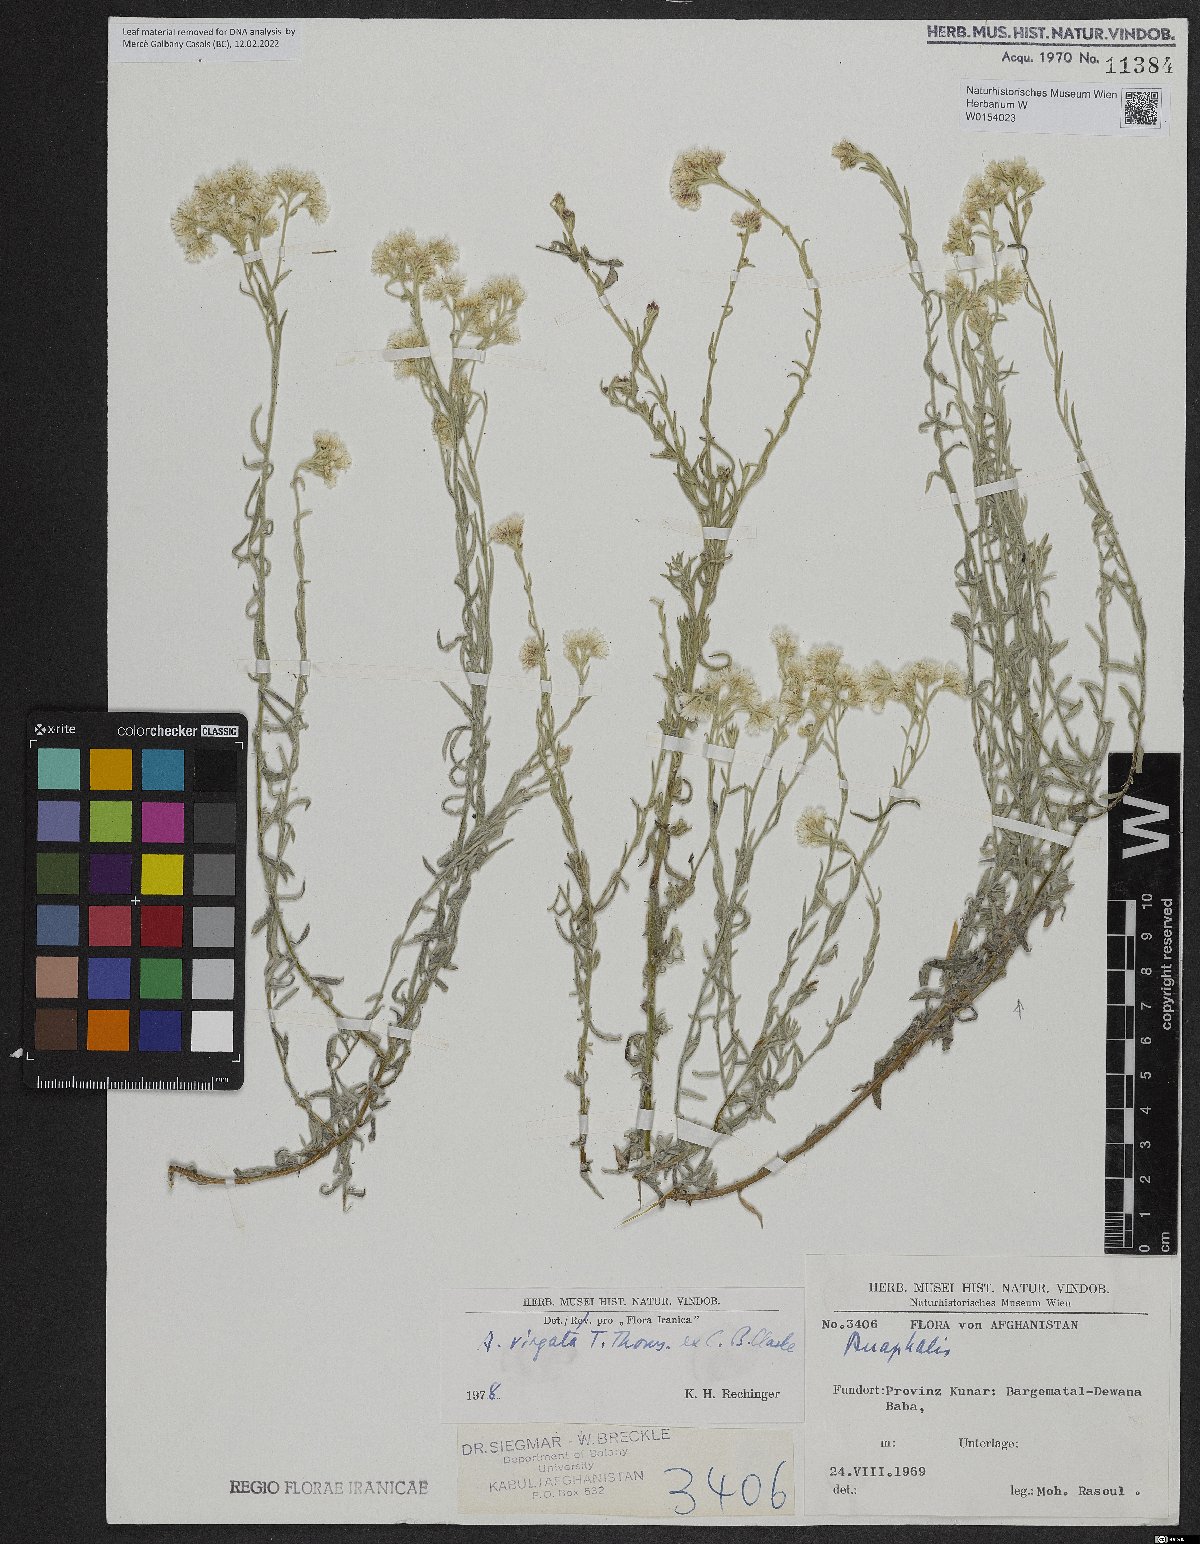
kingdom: Plantae
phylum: Tracheophyta
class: Magnoliopsida
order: Asterales
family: Asteraceae
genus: Anaphalis
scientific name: Anaphalis virgata
